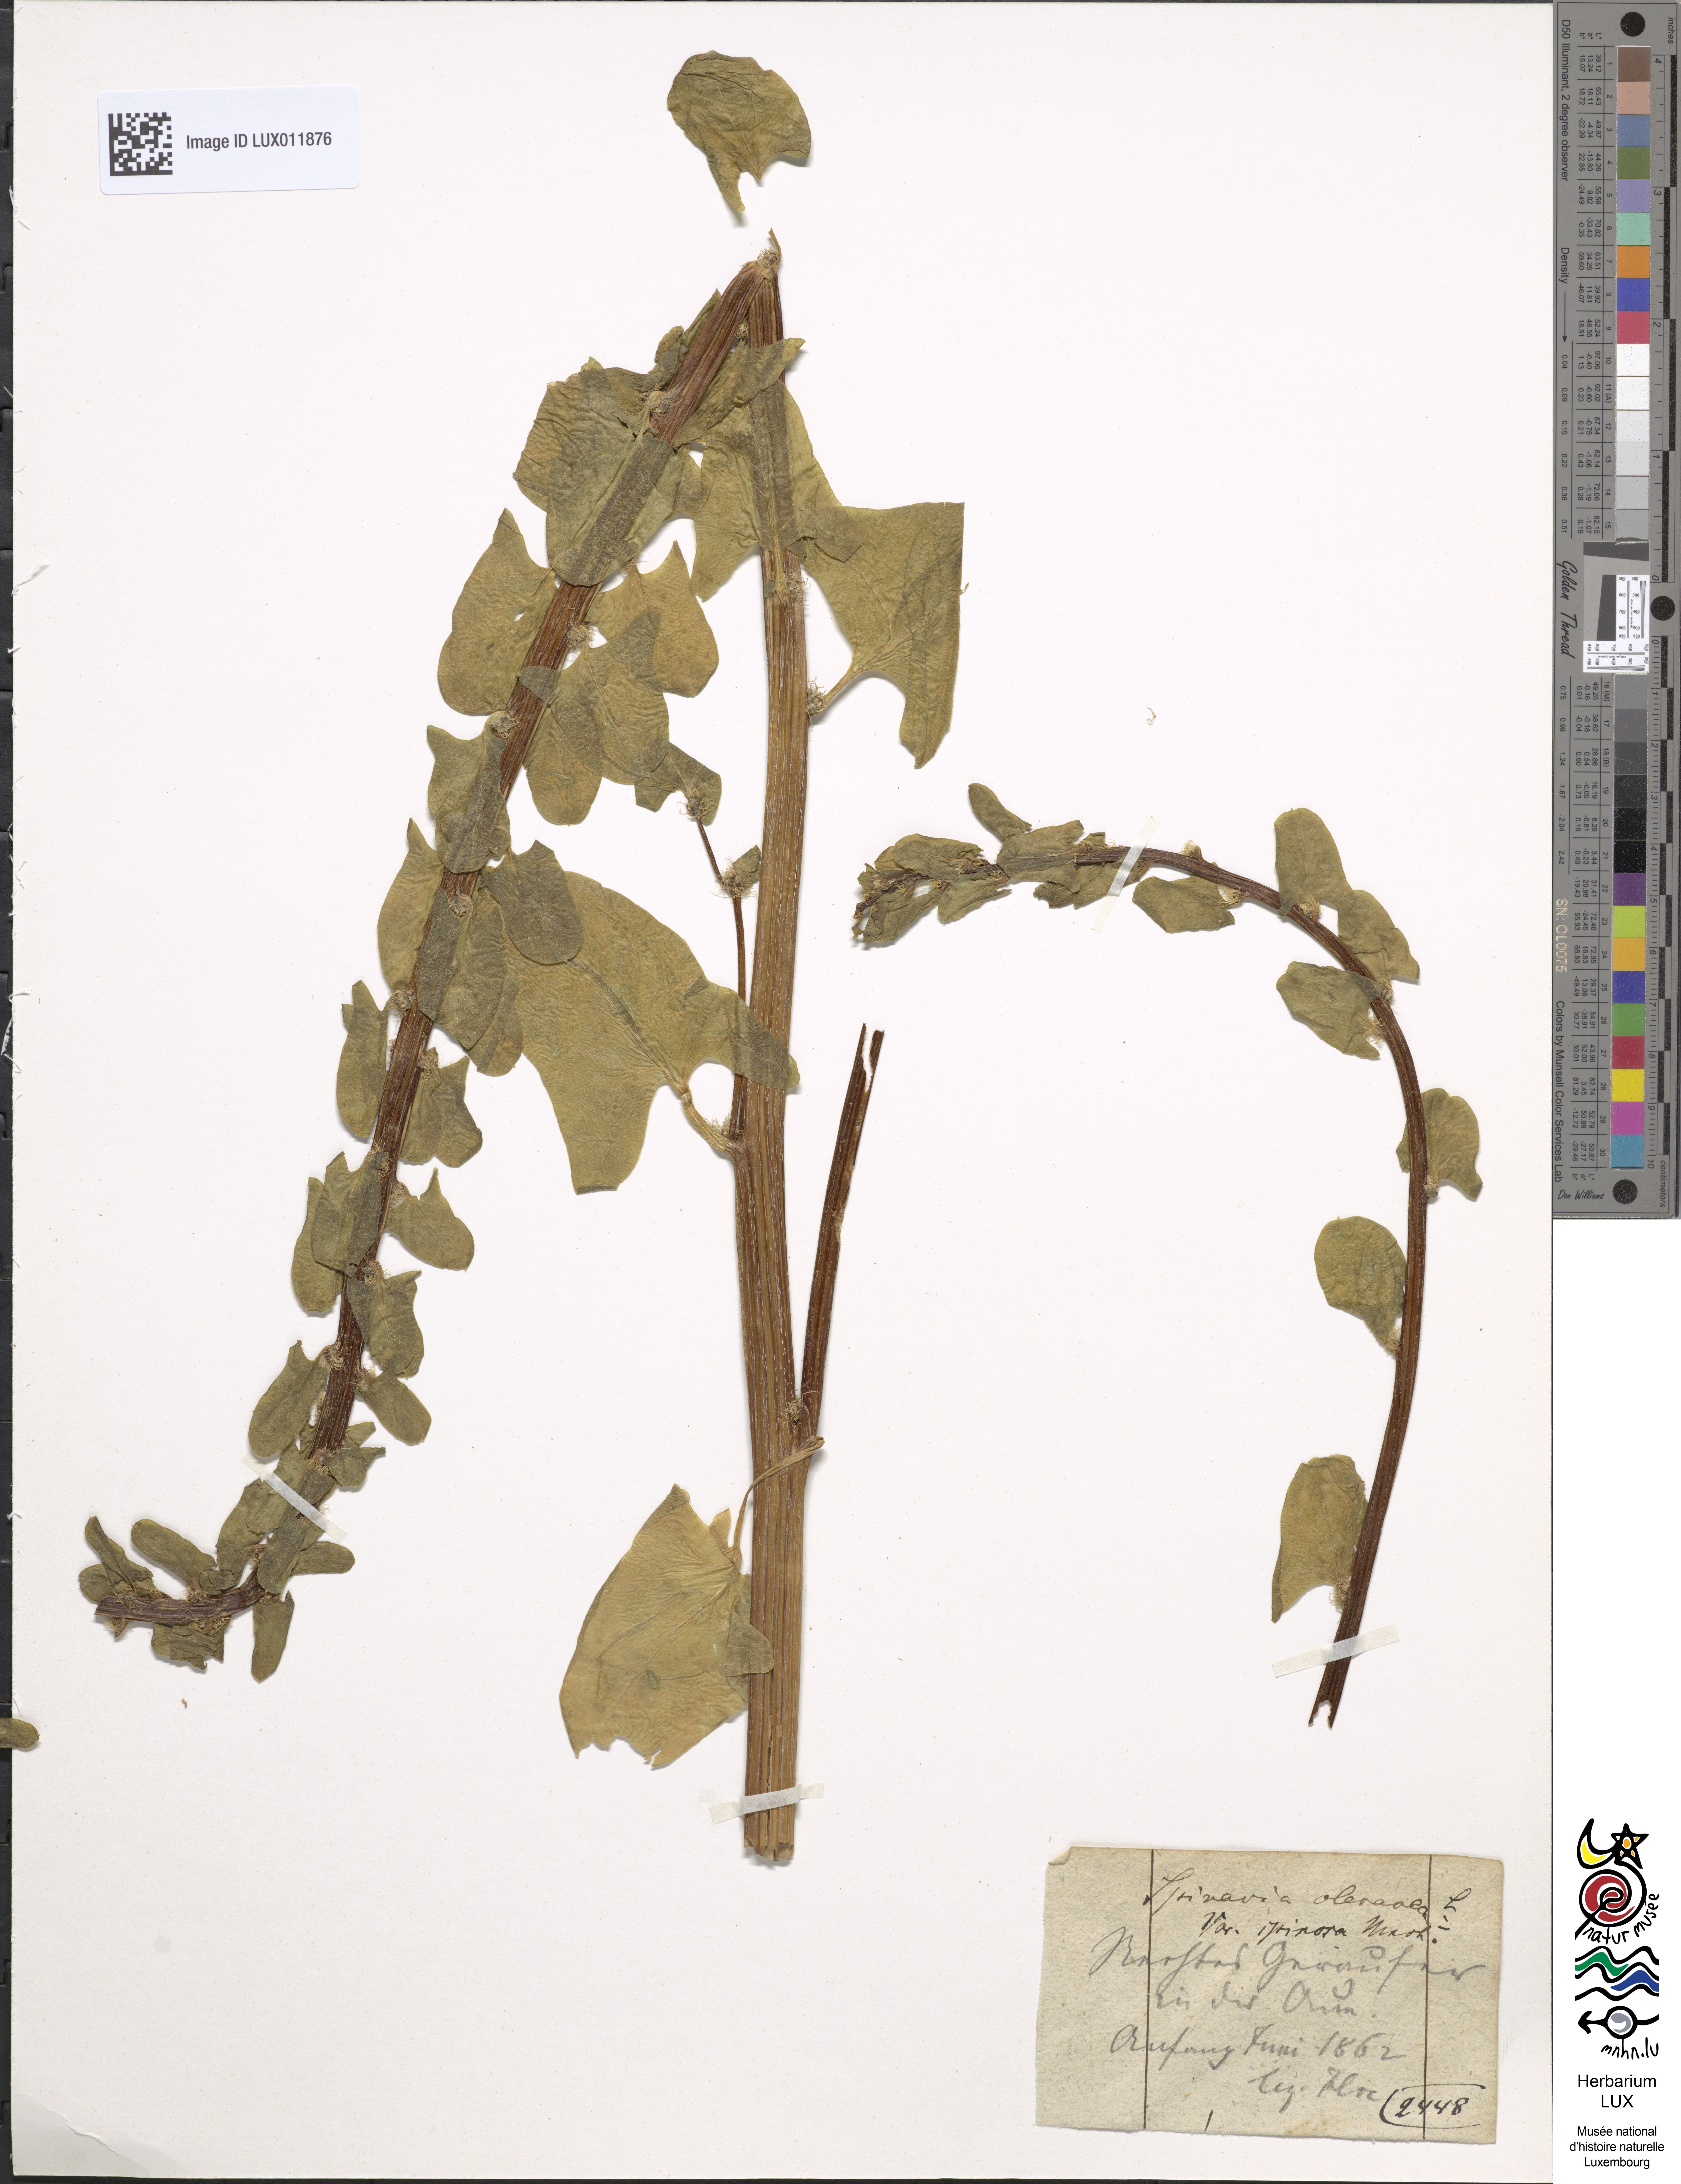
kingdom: Plantae
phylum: Tracheophyta
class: Magnoliopsida
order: Caryophyllales
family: Amaranthaceae
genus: Spinacia
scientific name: Spinacia oleracea
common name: Spinach
